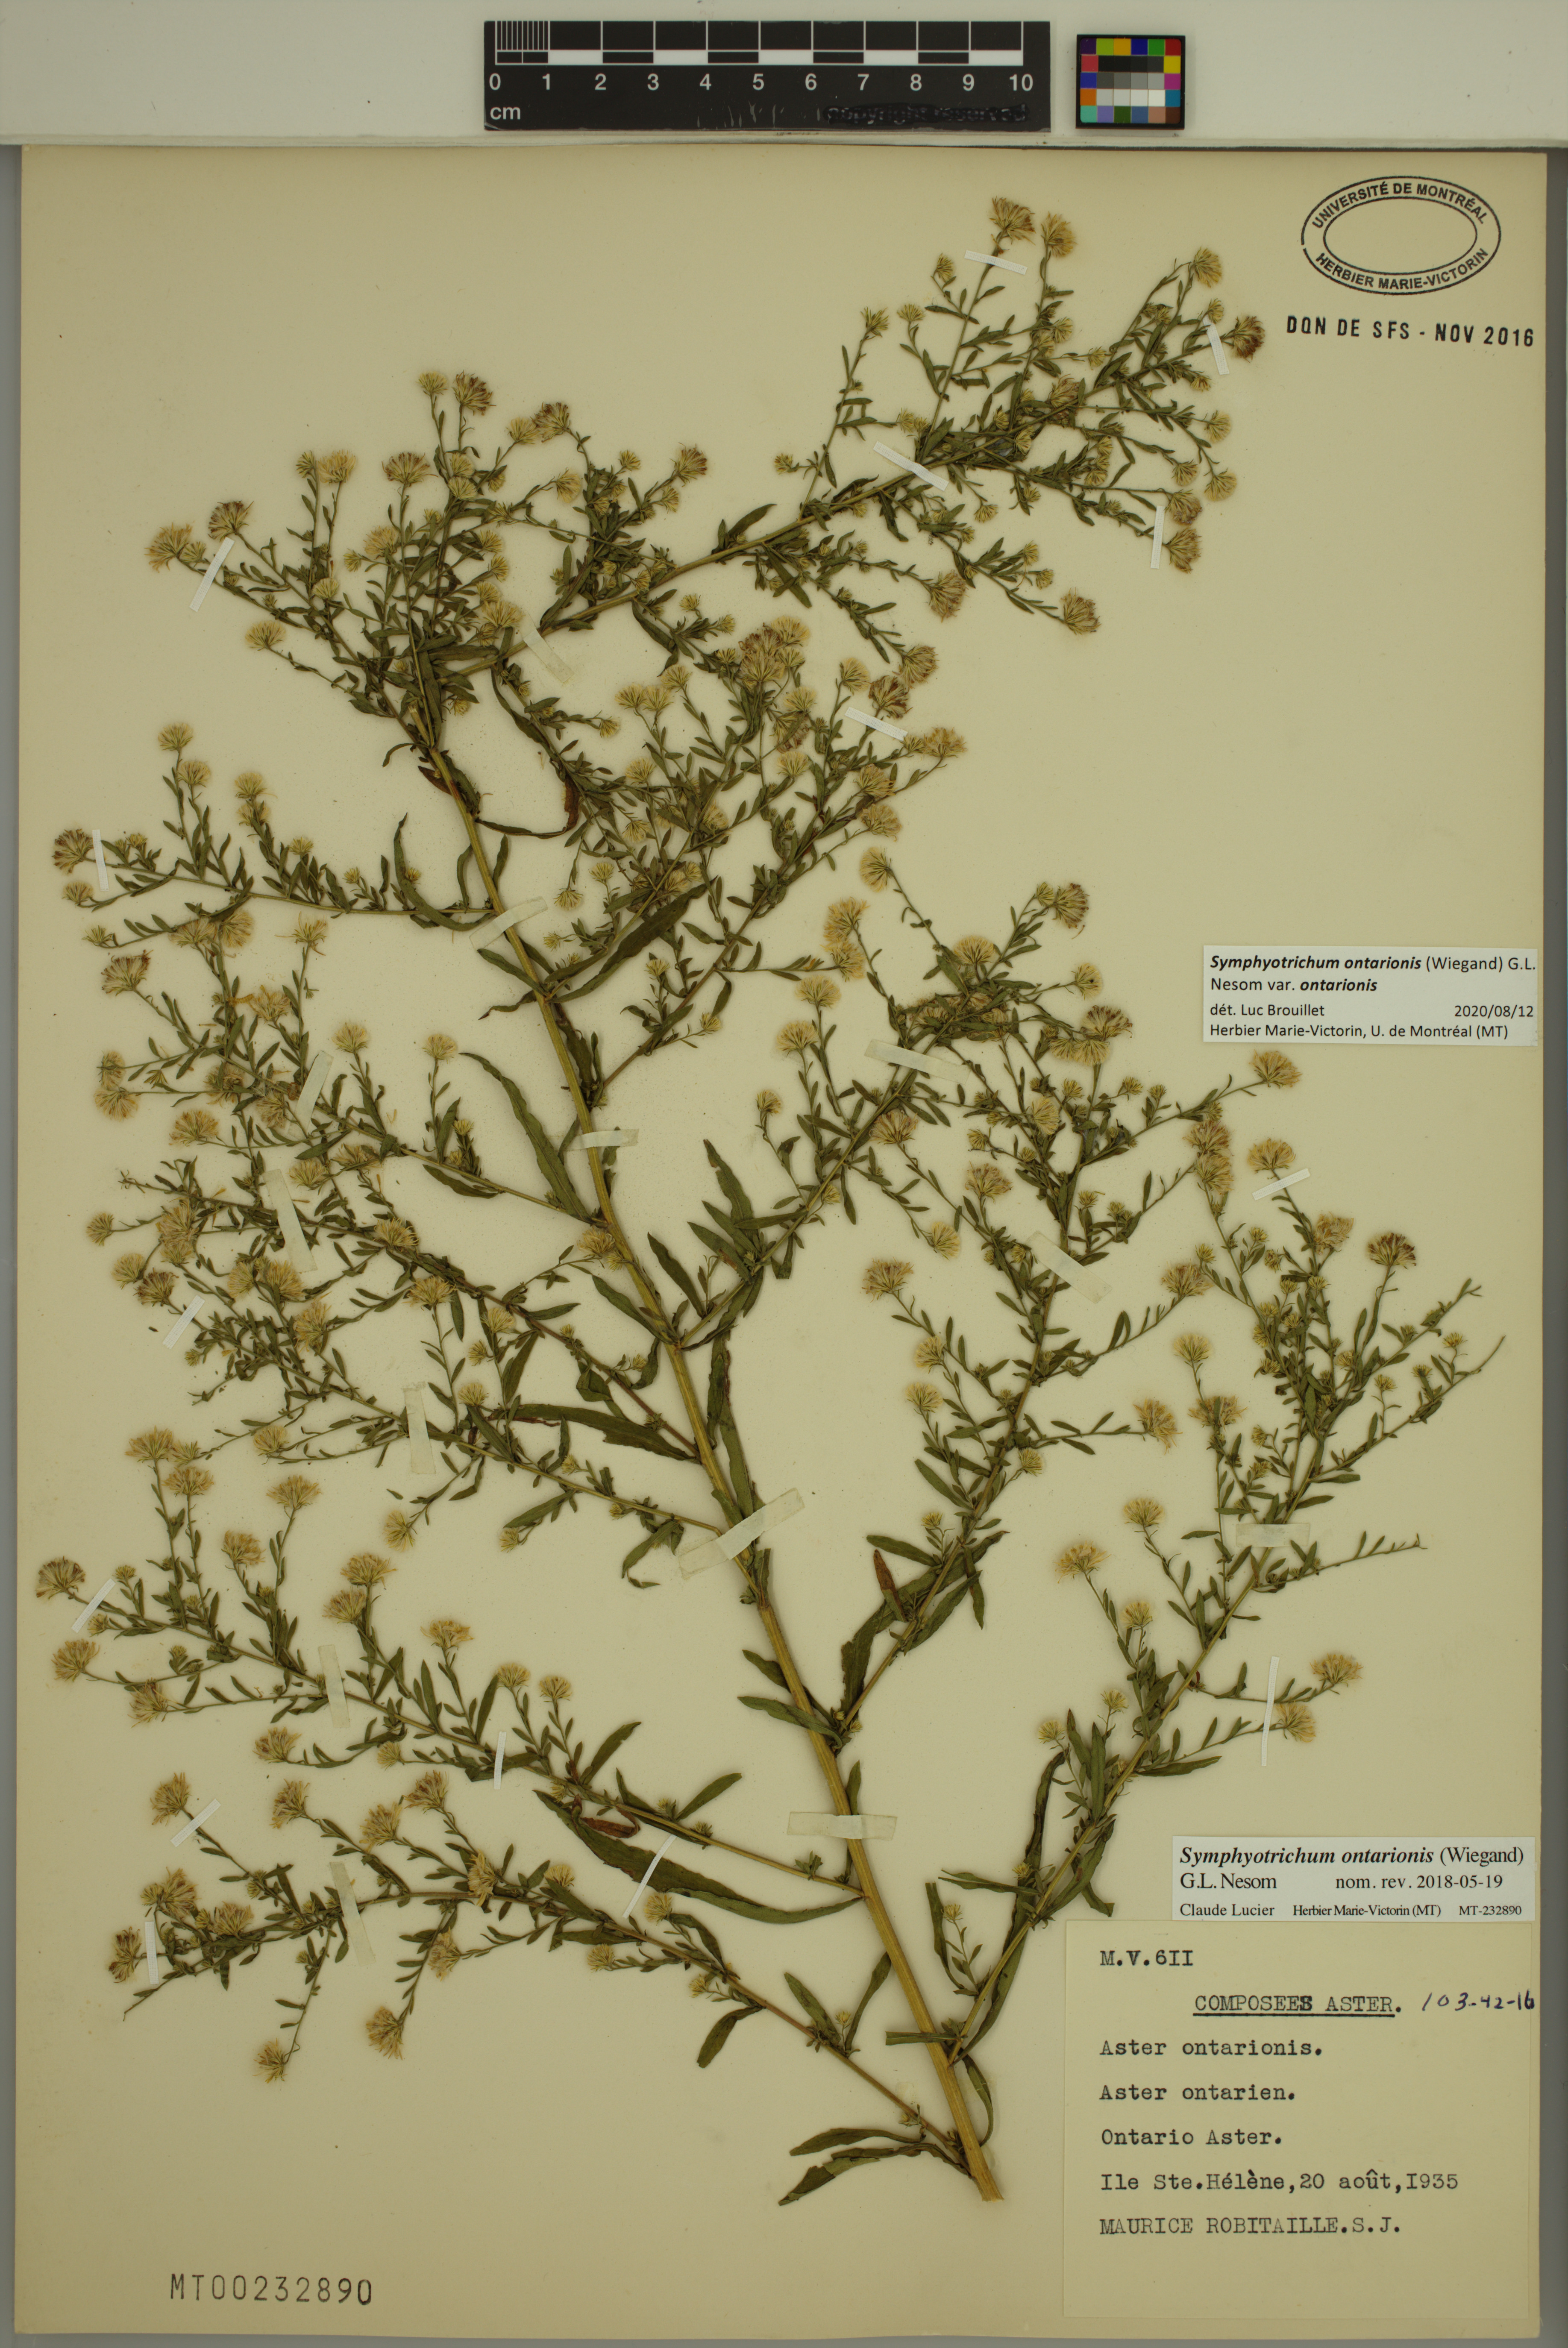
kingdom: Plantae
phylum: Tracheophyta
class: Magnoliopsida
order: Asterales
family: Asteraceae
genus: Symphyotrichum
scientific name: Symphyotrichum ontarionis
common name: Bottomland aster
